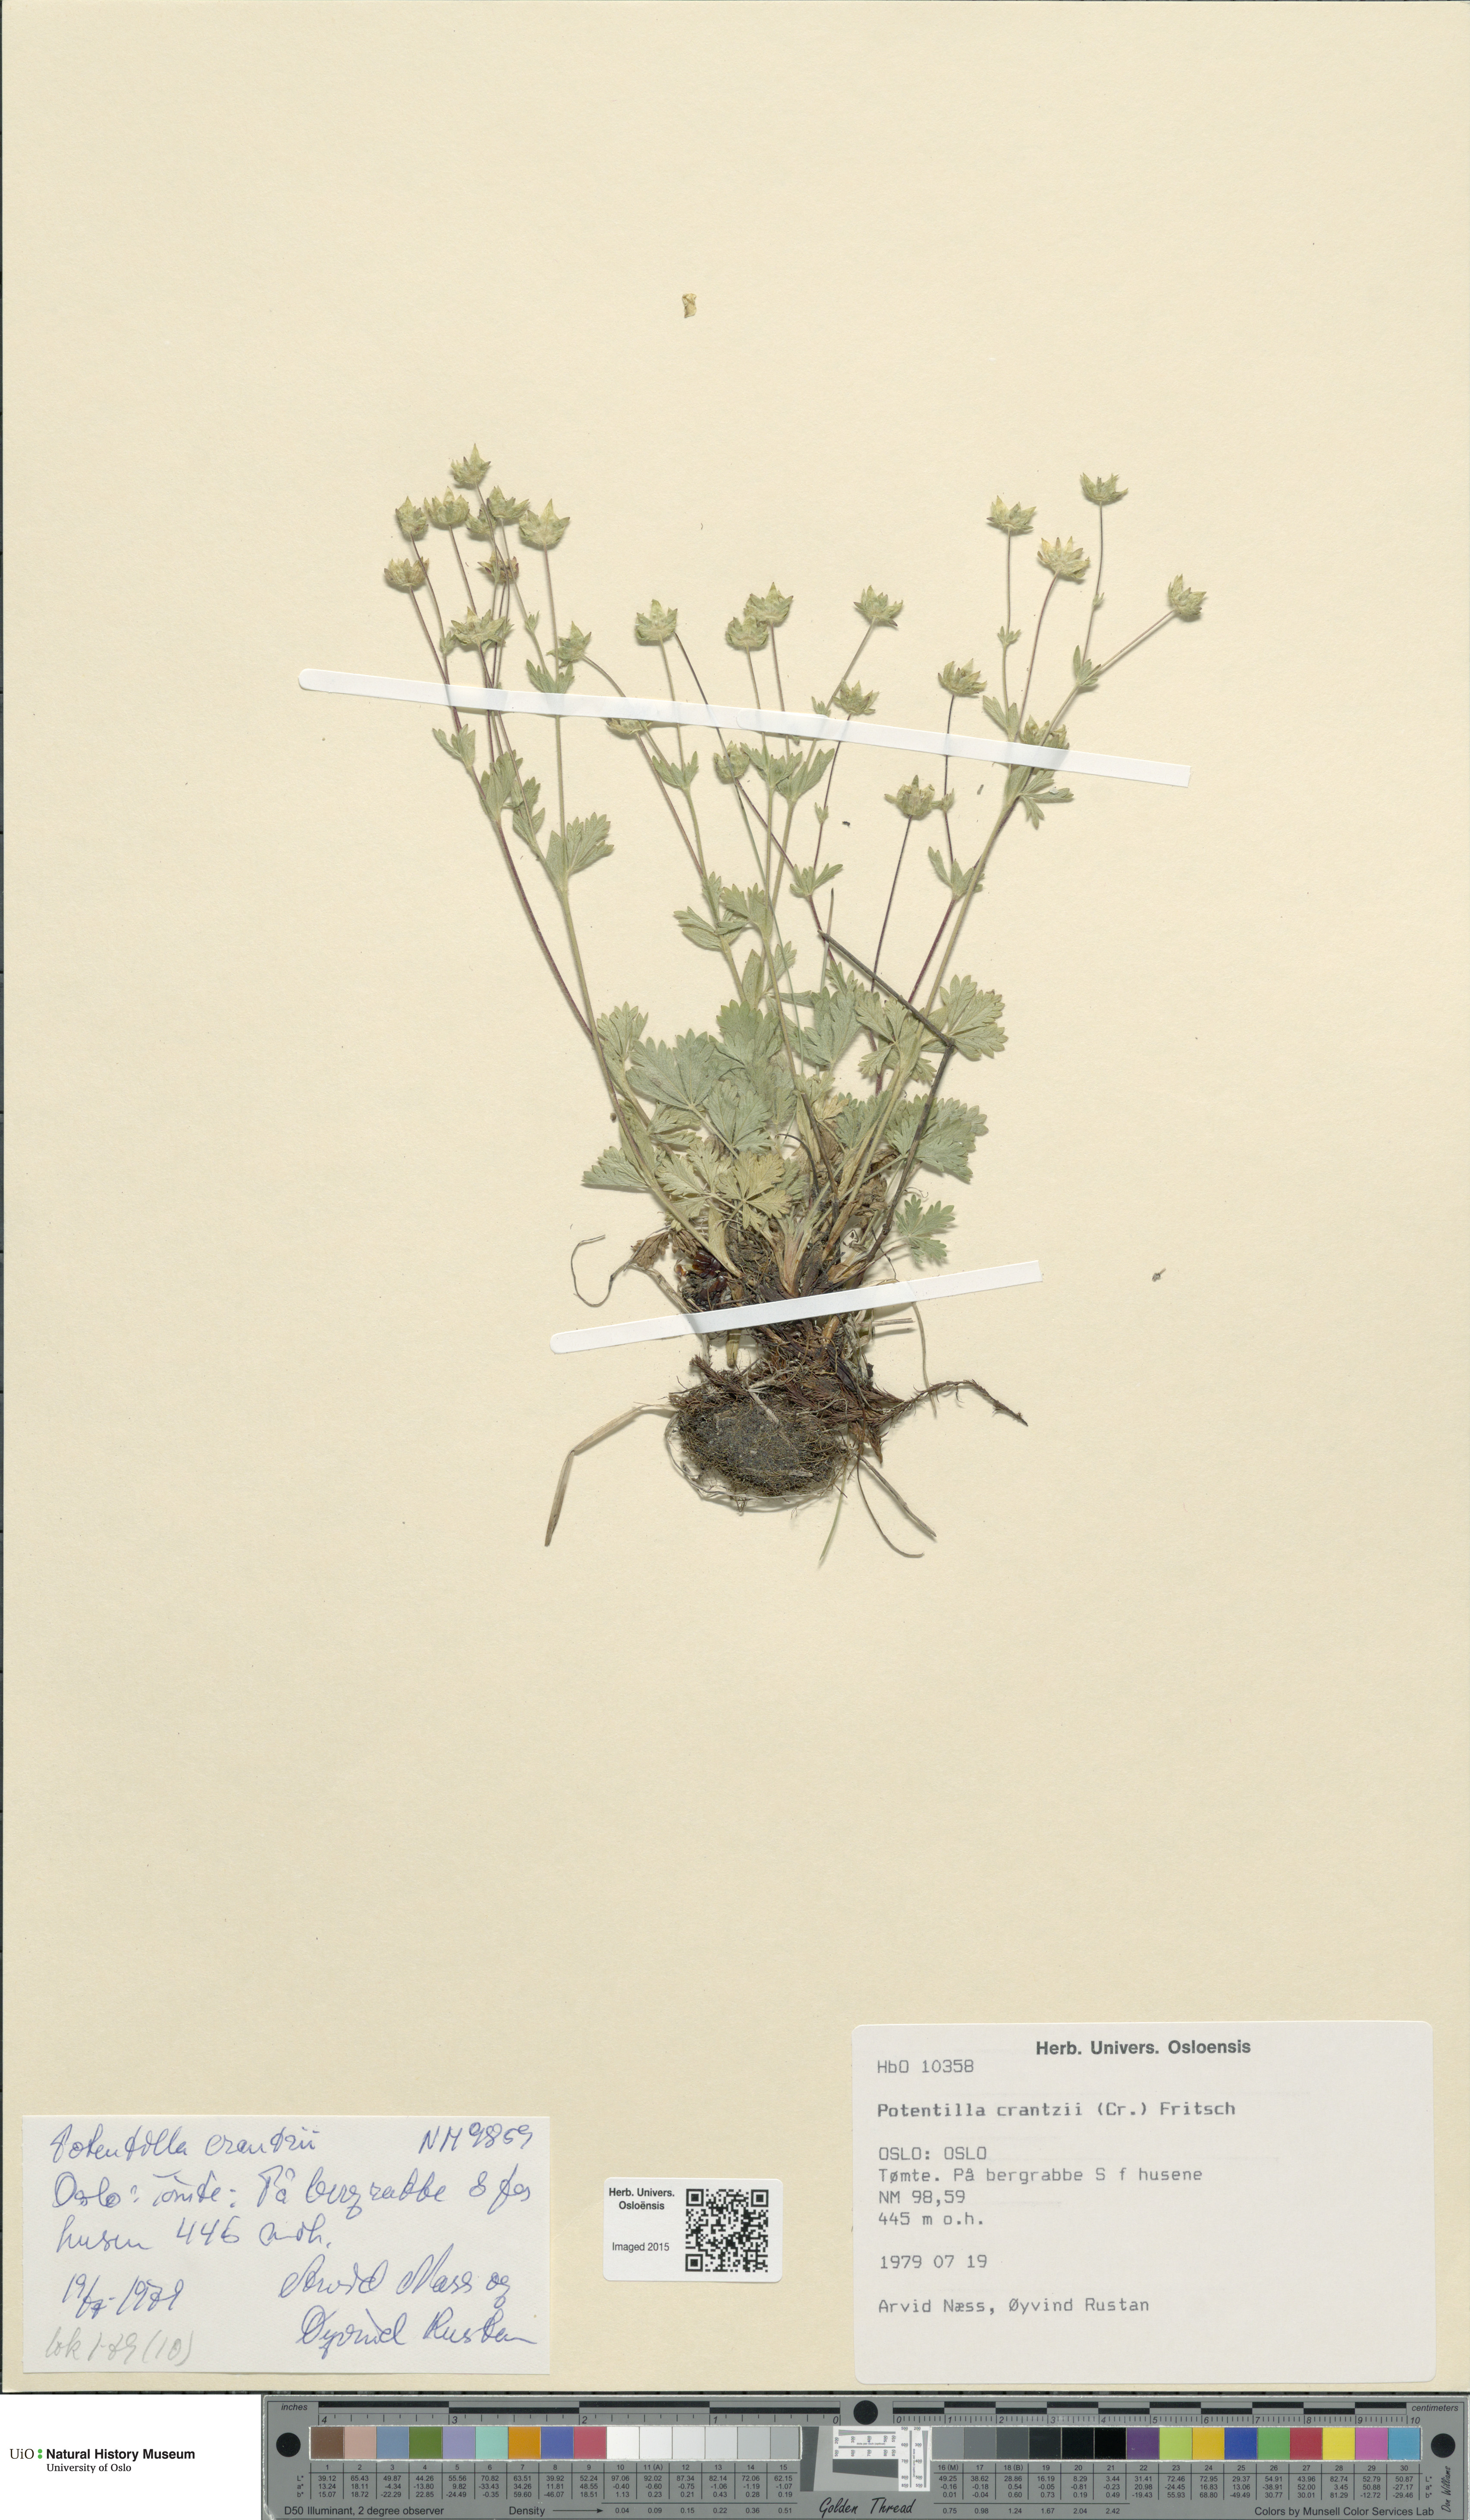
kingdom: Plantae
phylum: Tracheophyta
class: Magnoliopsida
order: Rosales
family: Rosaceae
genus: Potentilla
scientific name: Potentilla crantzii
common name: Alpine cinquefoil
